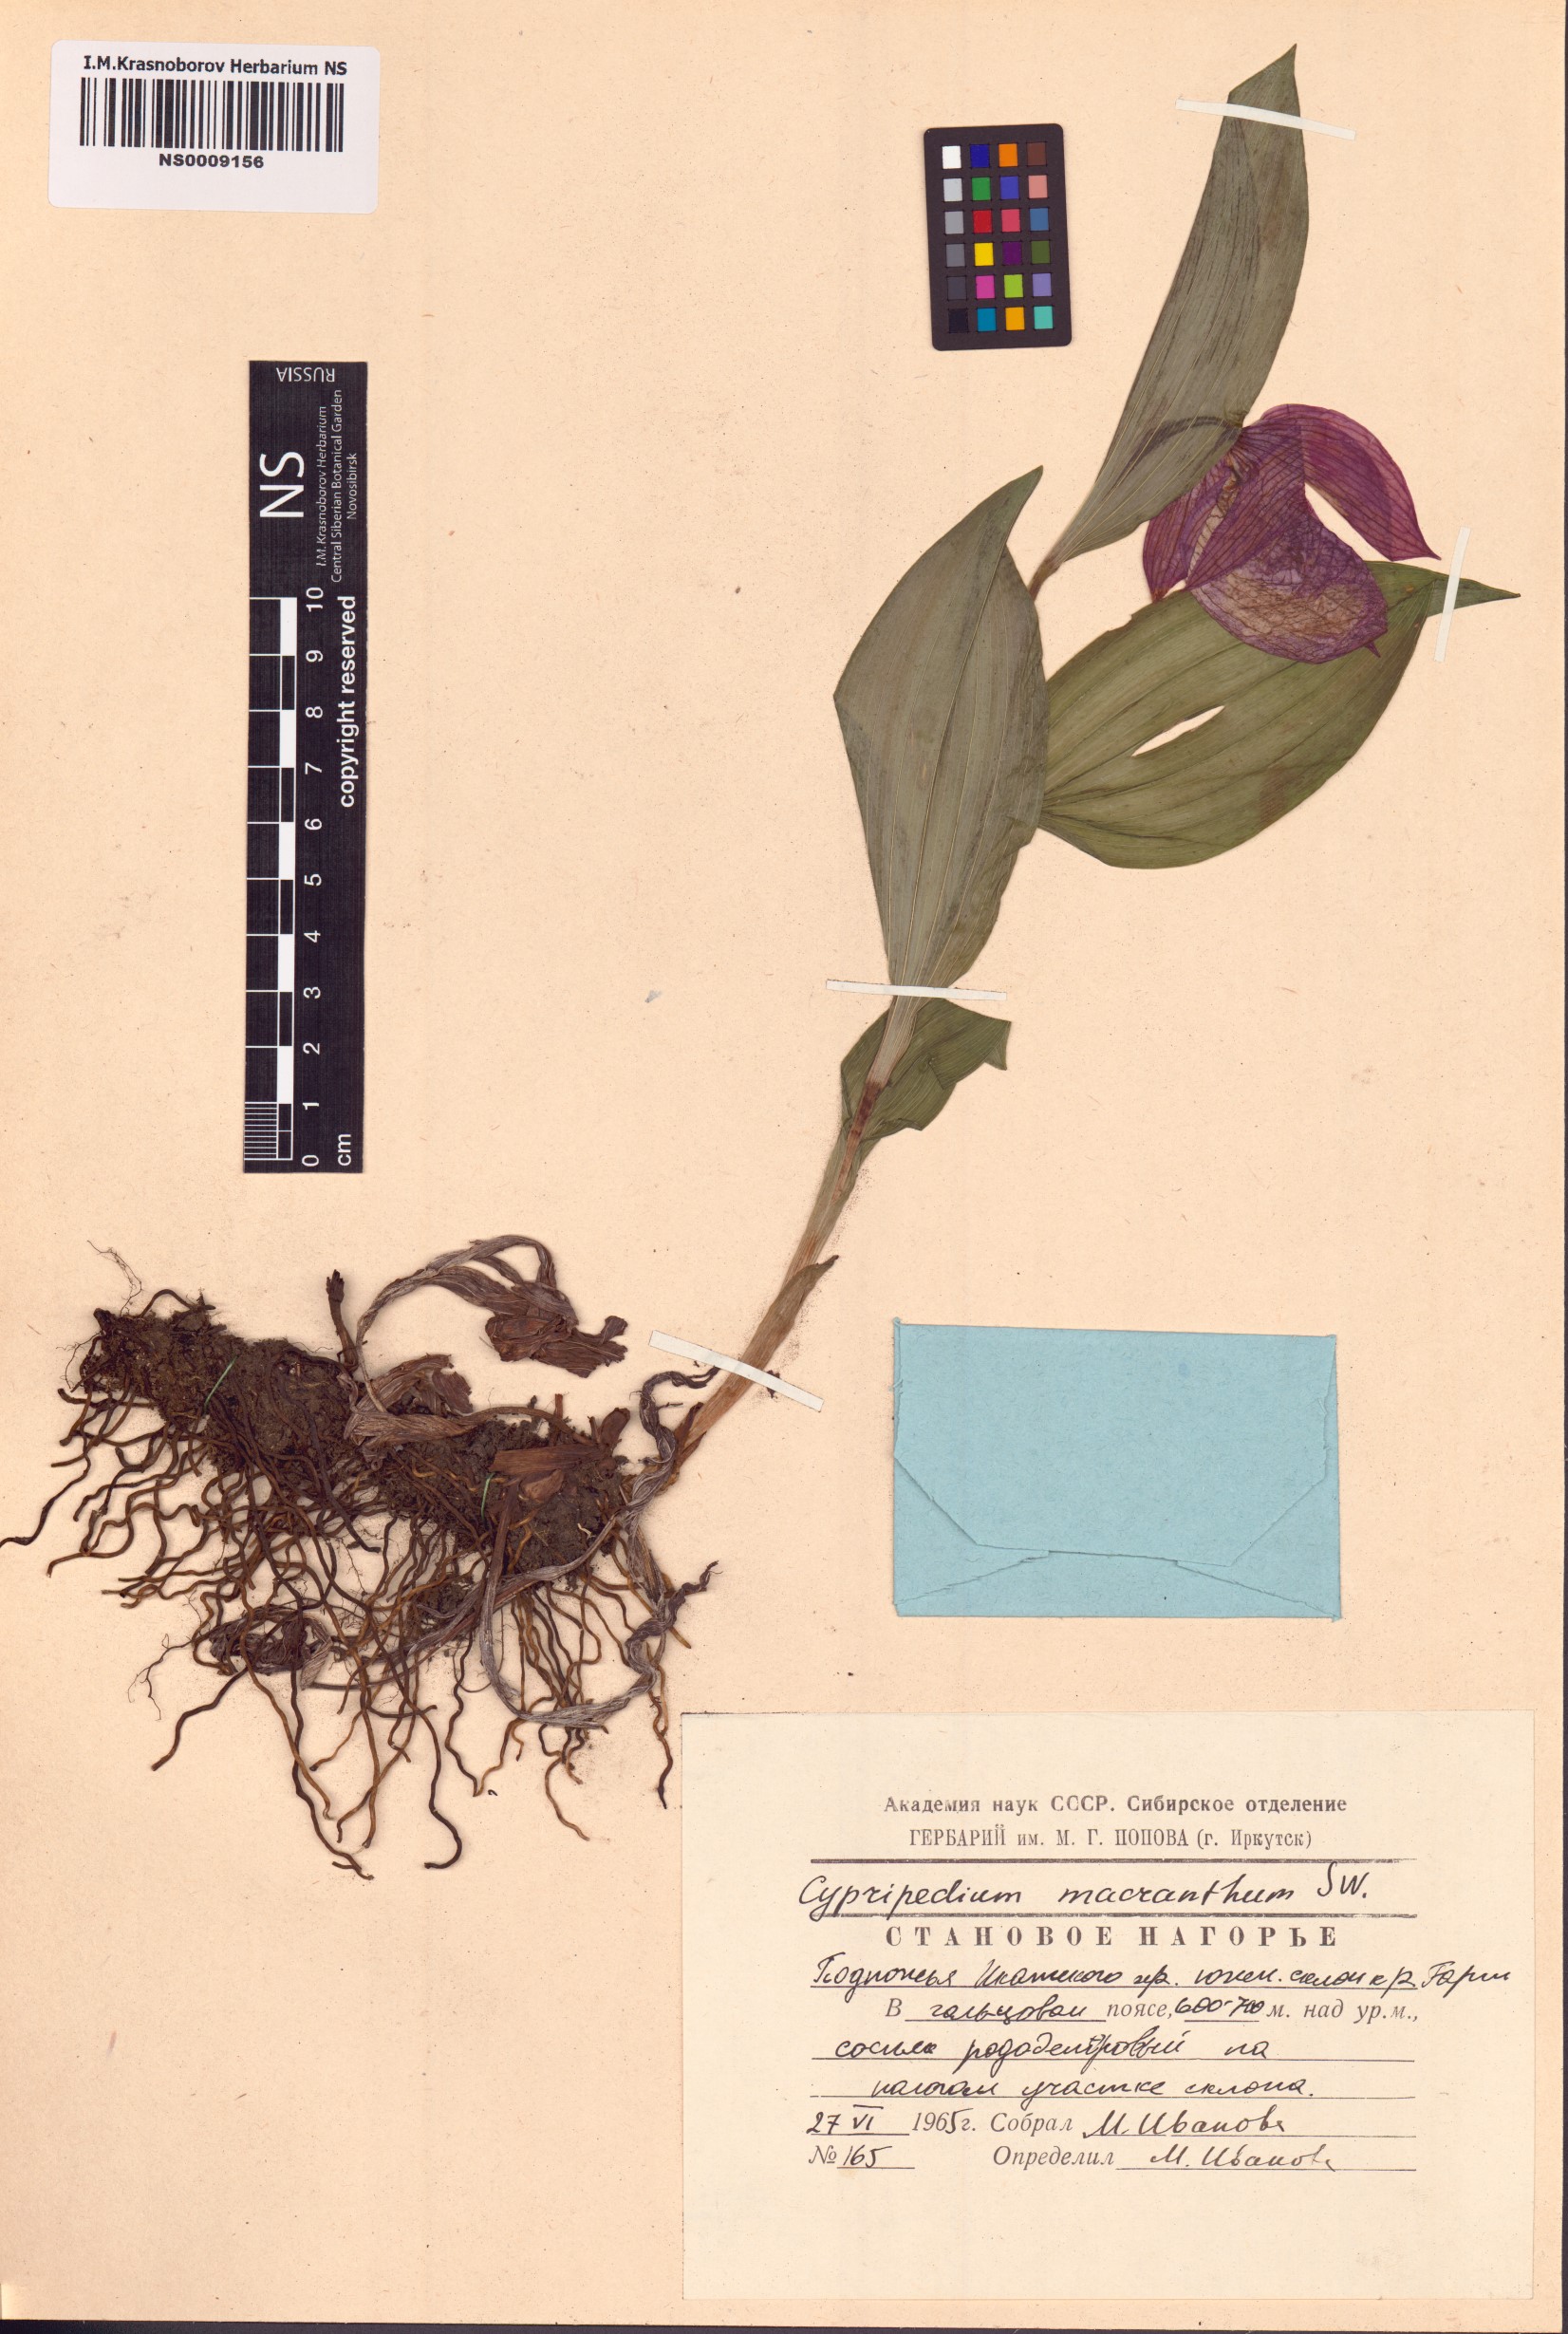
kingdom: Plantae
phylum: Tracheophyta
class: Liliopsida
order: Asparagales
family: Orchidaceae
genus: Cypripedium
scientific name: Cypripedium macranthos
